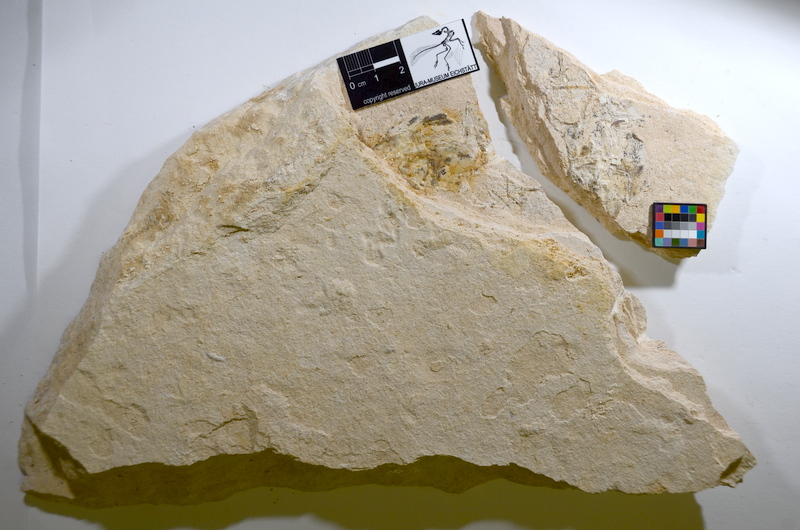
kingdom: Animalia
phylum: Chordata
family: Ascalaboidae
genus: Tharsis
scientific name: Tharsis
